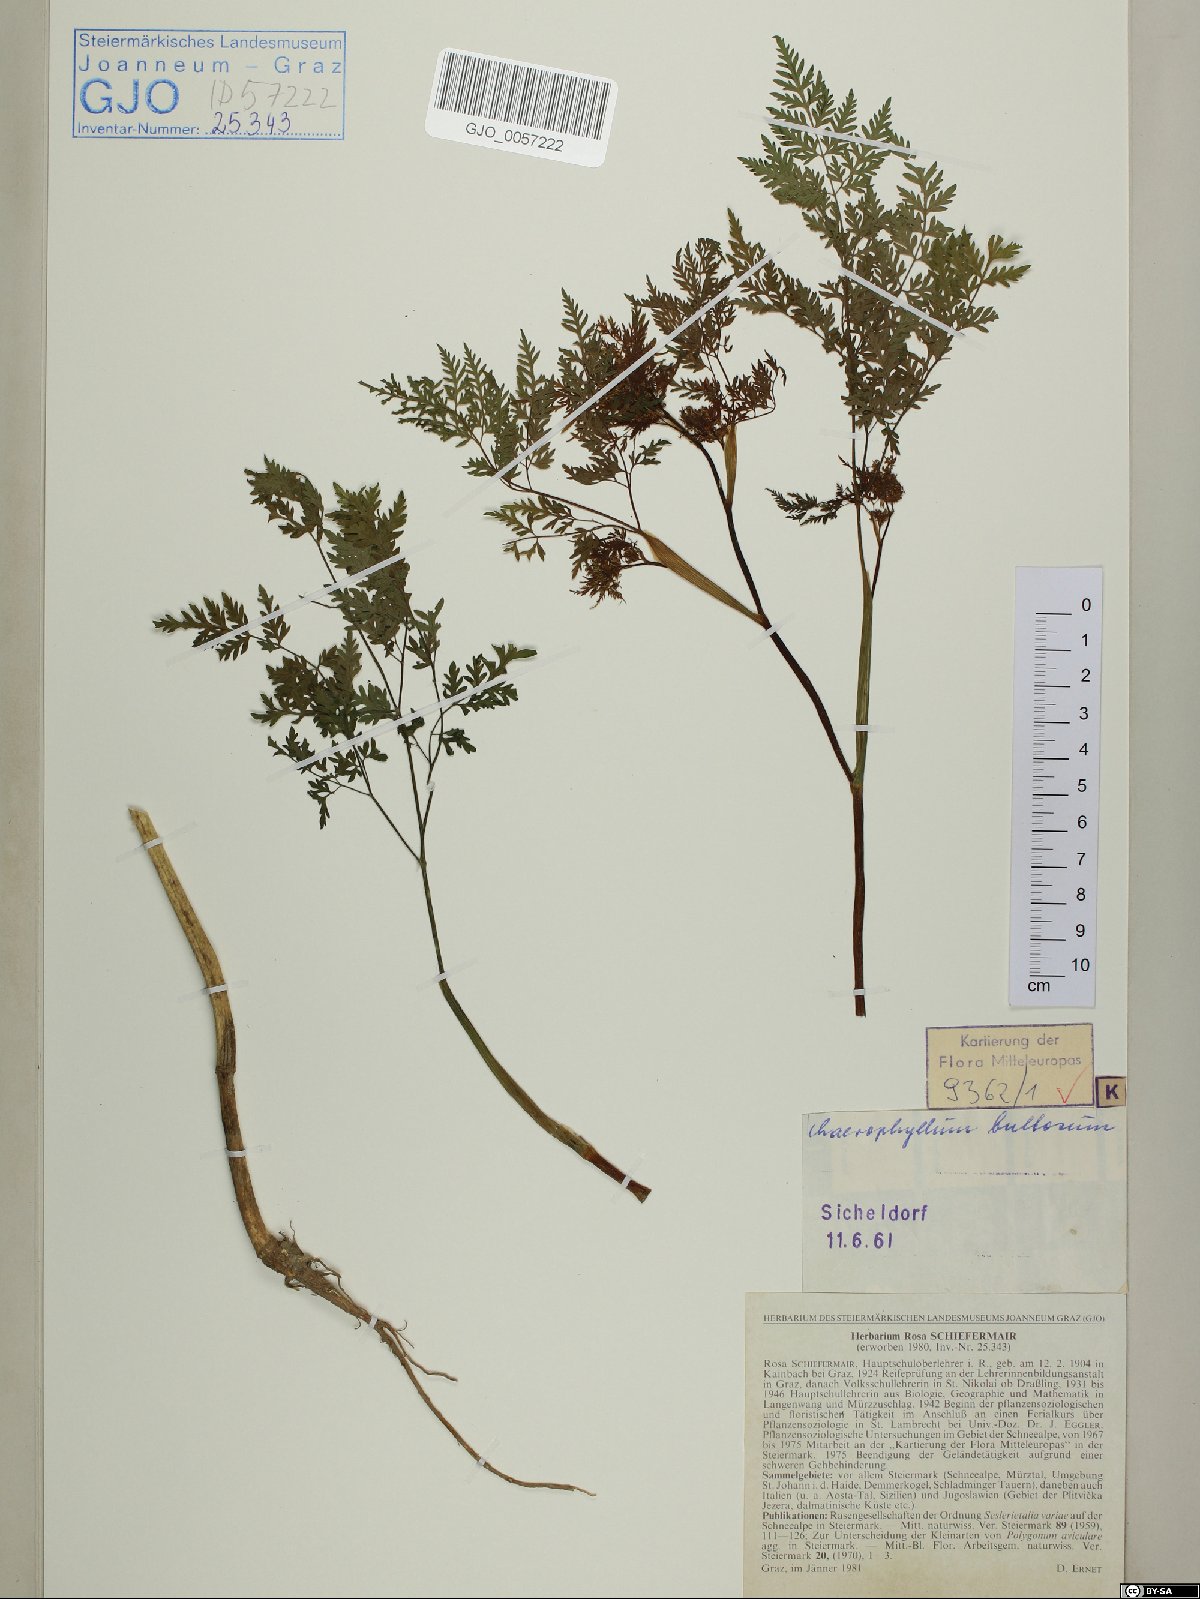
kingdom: Plantae
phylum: Tracheophyta
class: Magnoliopsida
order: Apiales
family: Apiaceae
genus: Chaerophyllum
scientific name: Chaerophyllum bulbosum
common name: Bulbous chervil
